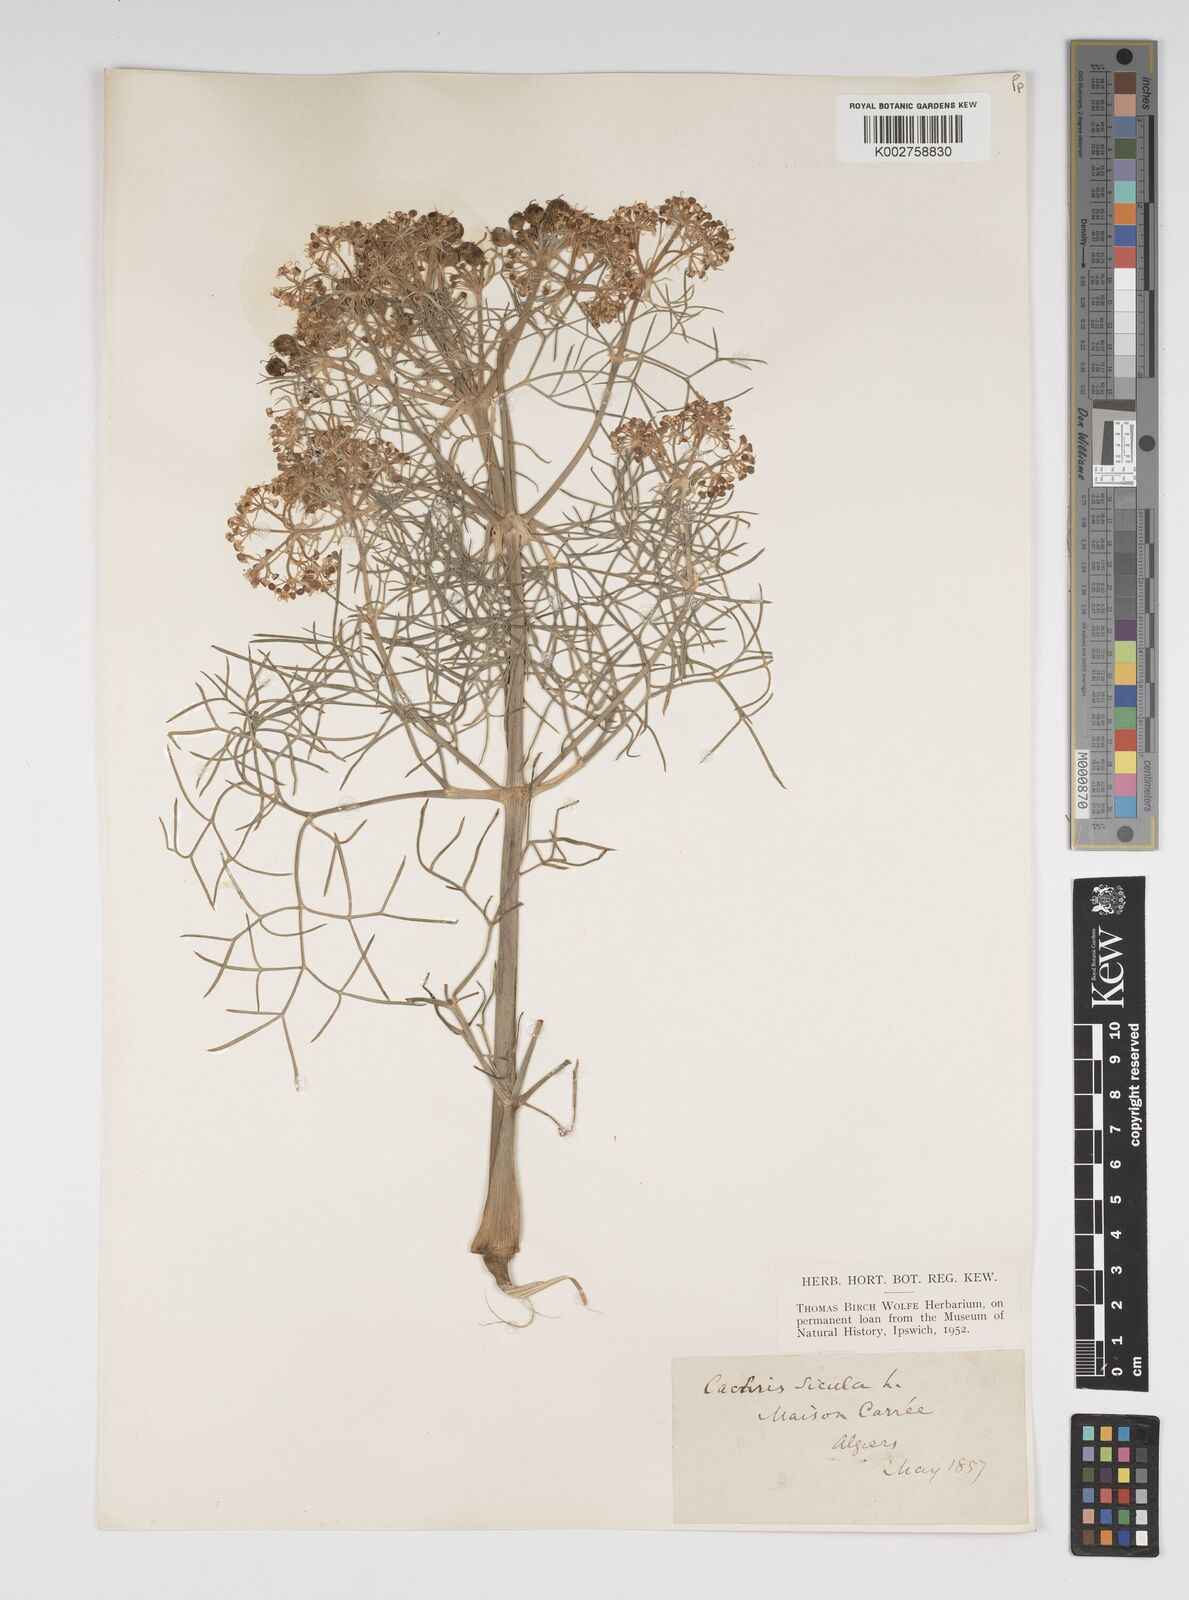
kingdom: Plantae
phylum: Tracheophyta
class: Magnoliopsida
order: Apiales
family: Apiaceae
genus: Cachrys
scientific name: Cachrys sicula
